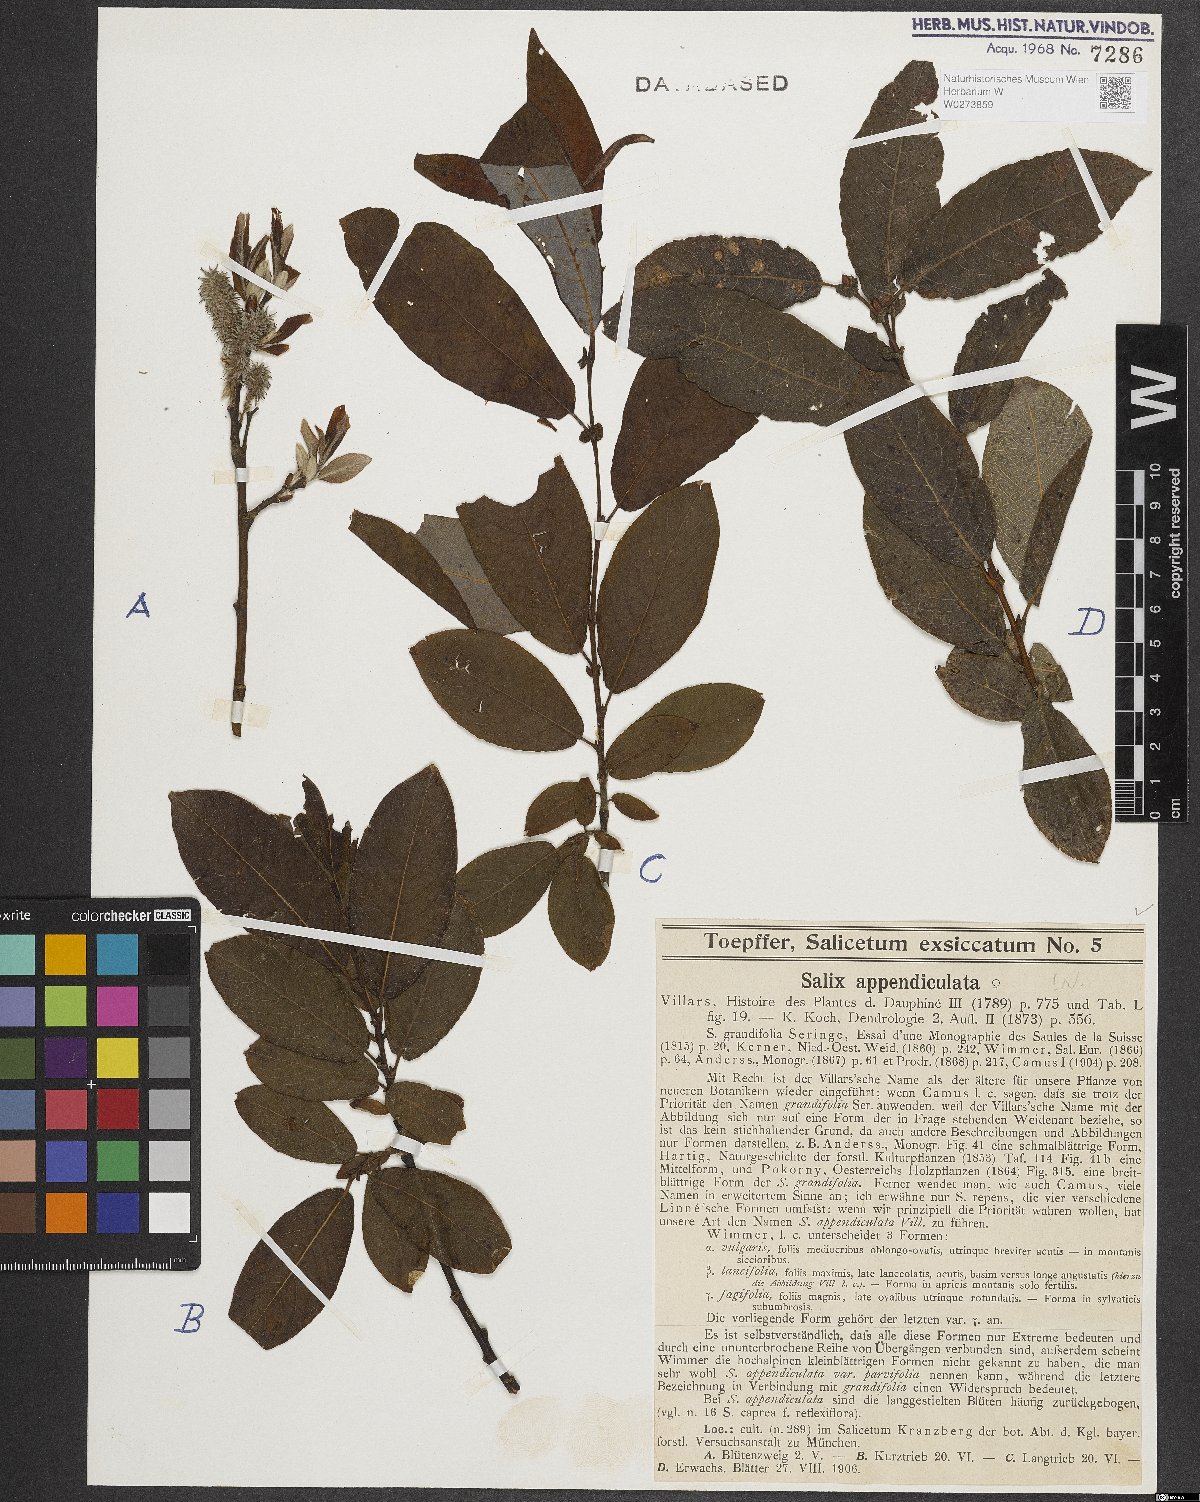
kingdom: Plantae
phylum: Tracheophyta
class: Magnoliopsida
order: Malpighiales
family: Salicaceae
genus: Salix
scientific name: Salix appendiculata
